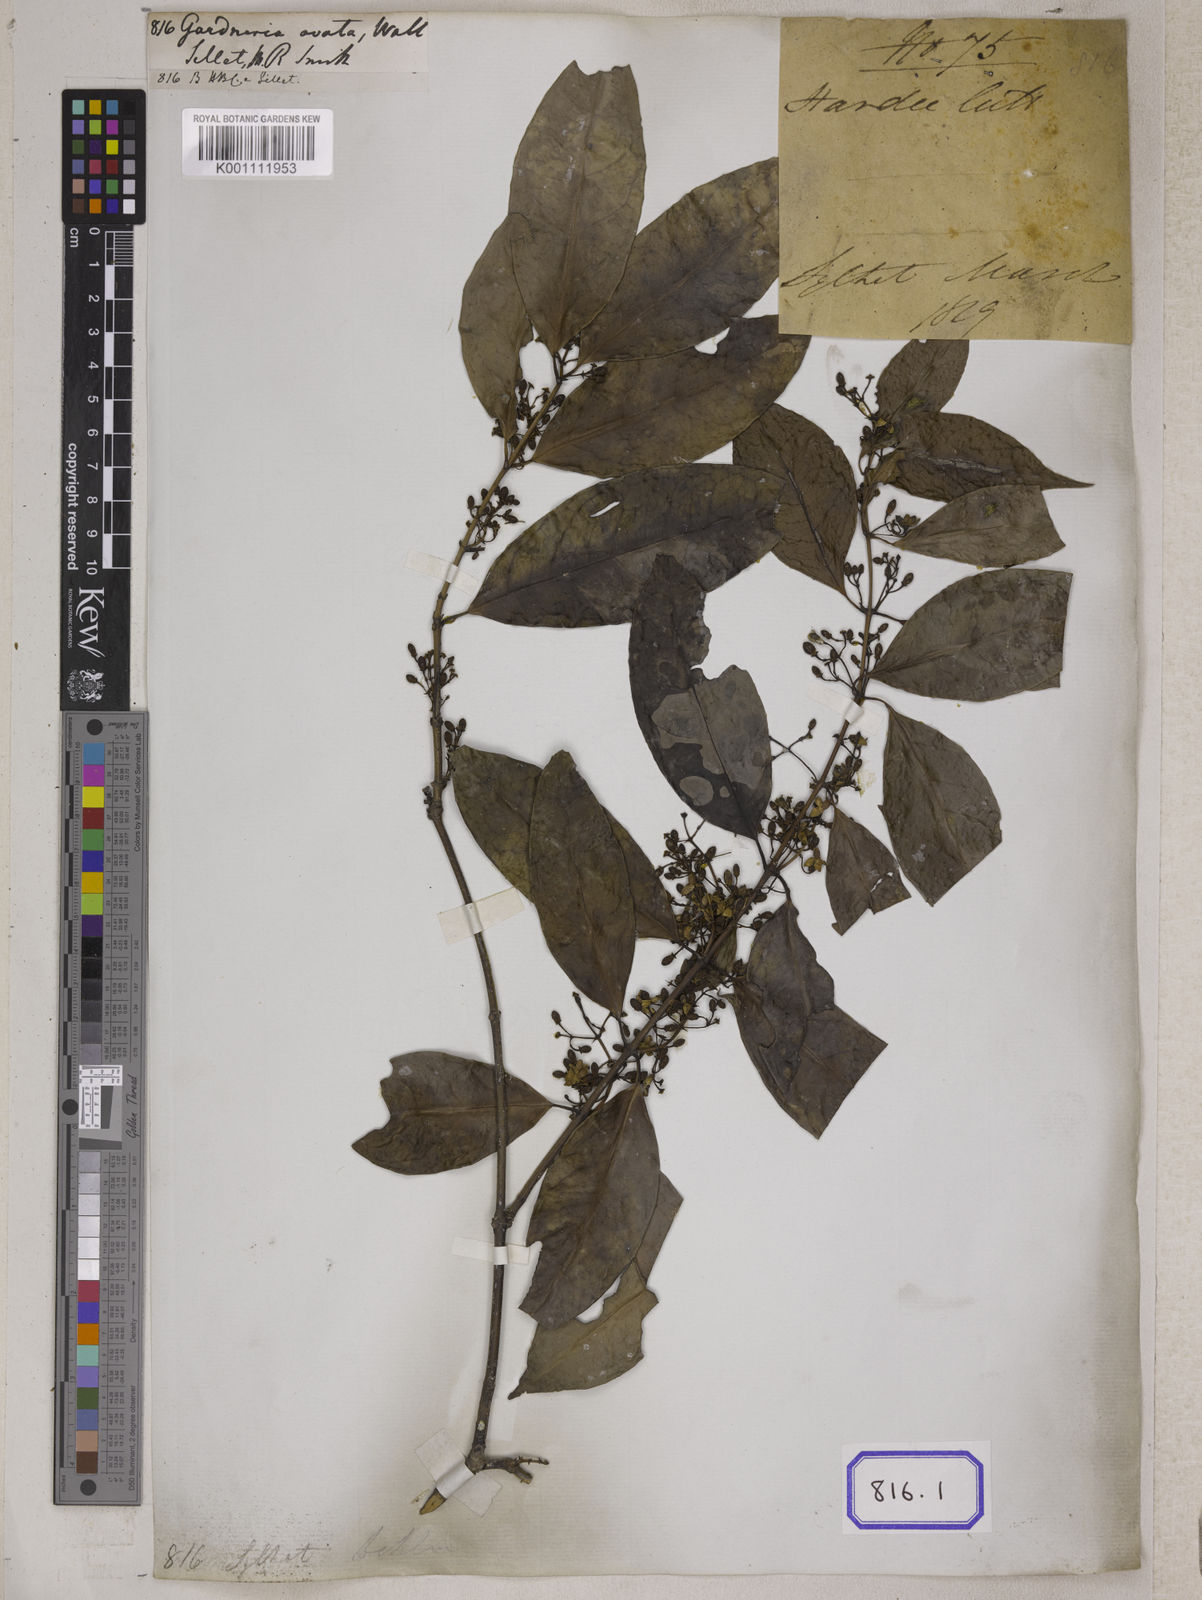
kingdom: Plantae
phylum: Tracheophyta
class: Magnoliopsida
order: Gentianales
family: Loganiaceae
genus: Gardneria
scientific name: Gardneria ovata
